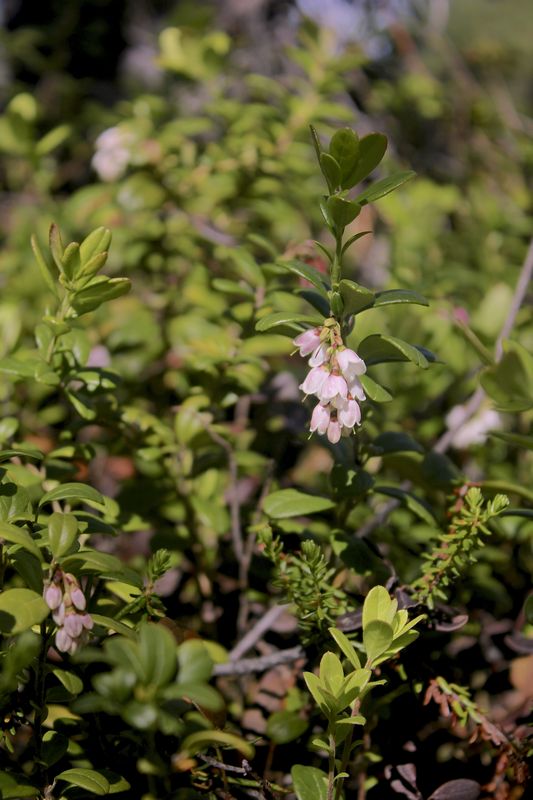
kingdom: Plantae
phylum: Tracheophyta
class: Magnoliopsida
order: Ericales
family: Ericaceae
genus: Vaccinium
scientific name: Vaccinium vitis-idaea
